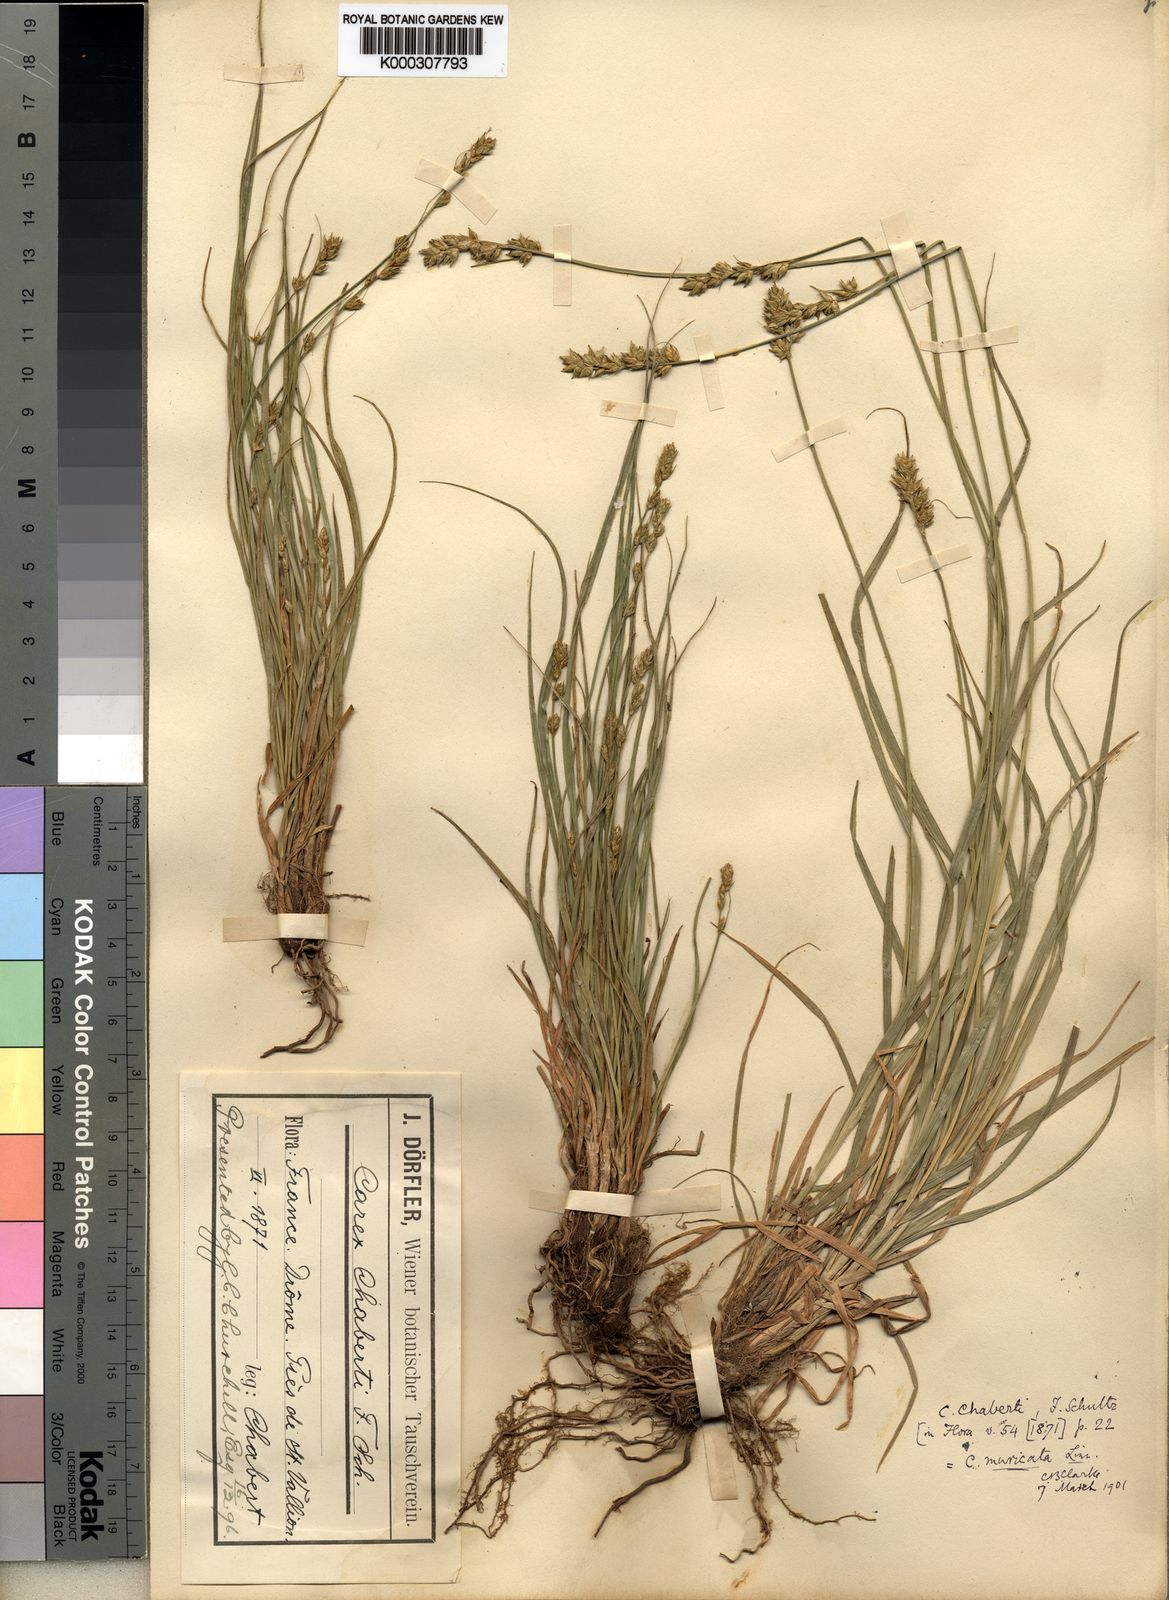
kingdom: Plantae
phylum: Tracheophyta
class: Liliopsida
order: Poales
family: Cyperaceae
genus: Carex
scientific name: Carex otrubae
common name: False fox-sedge
